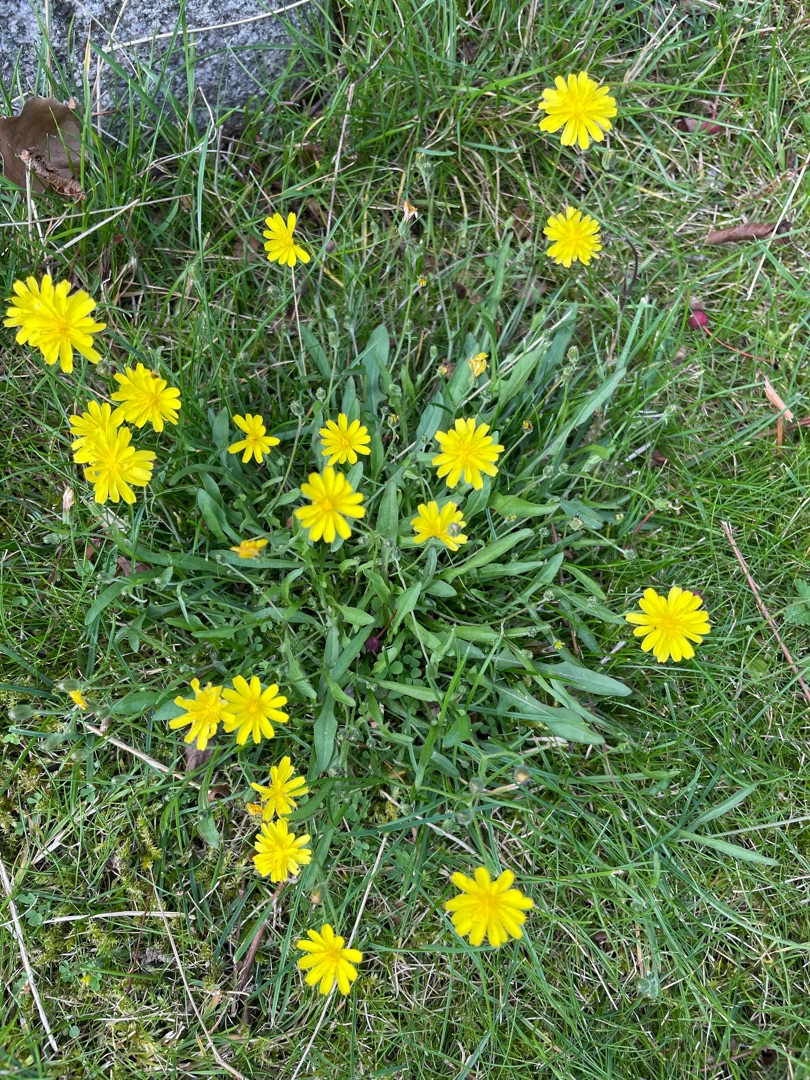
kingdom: Plantae
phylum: Tracheophyta
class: Magnoliopsida
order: Asterales
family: Asteraceae
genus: Crepis
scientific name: Crepis capillaris
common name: Grøn høgeskæg
